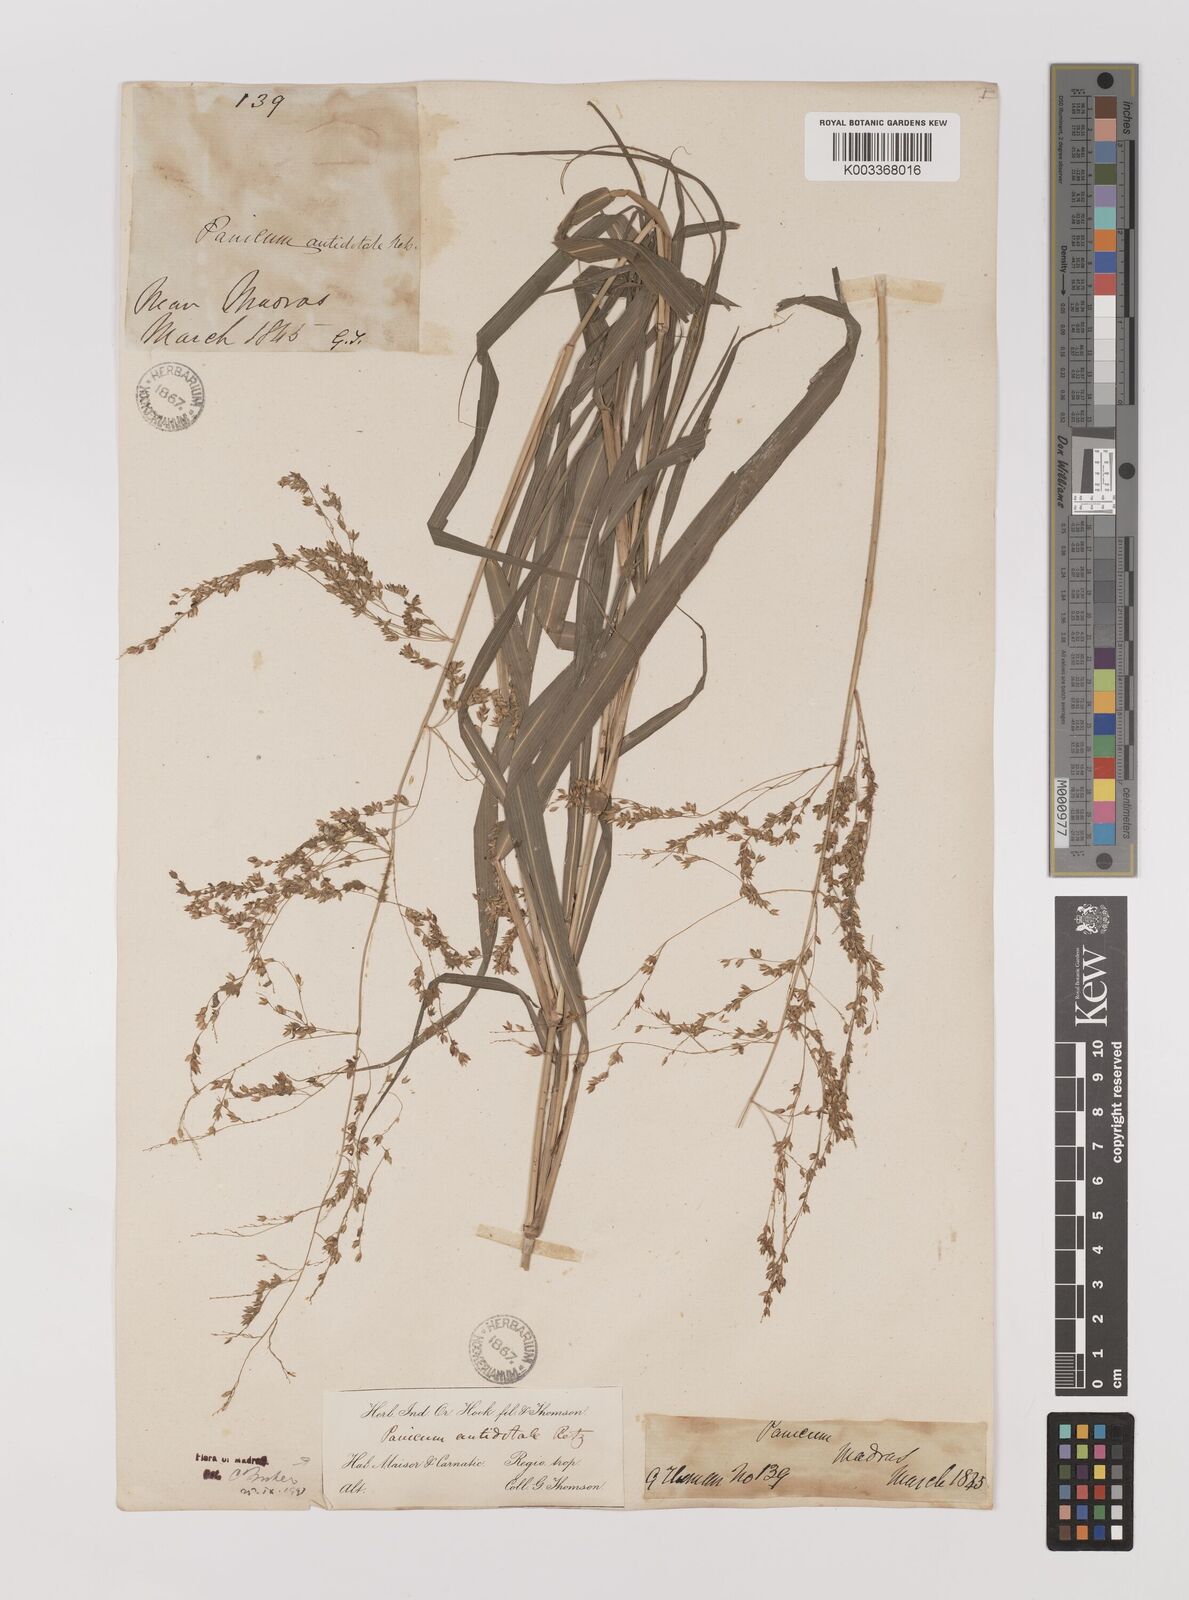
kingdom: Plantae
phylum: Tracheophyta
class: Liliopsida
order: Poales
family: Poaceae
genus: Panicum
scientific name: Panicum antidotale
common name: Blue panicum
